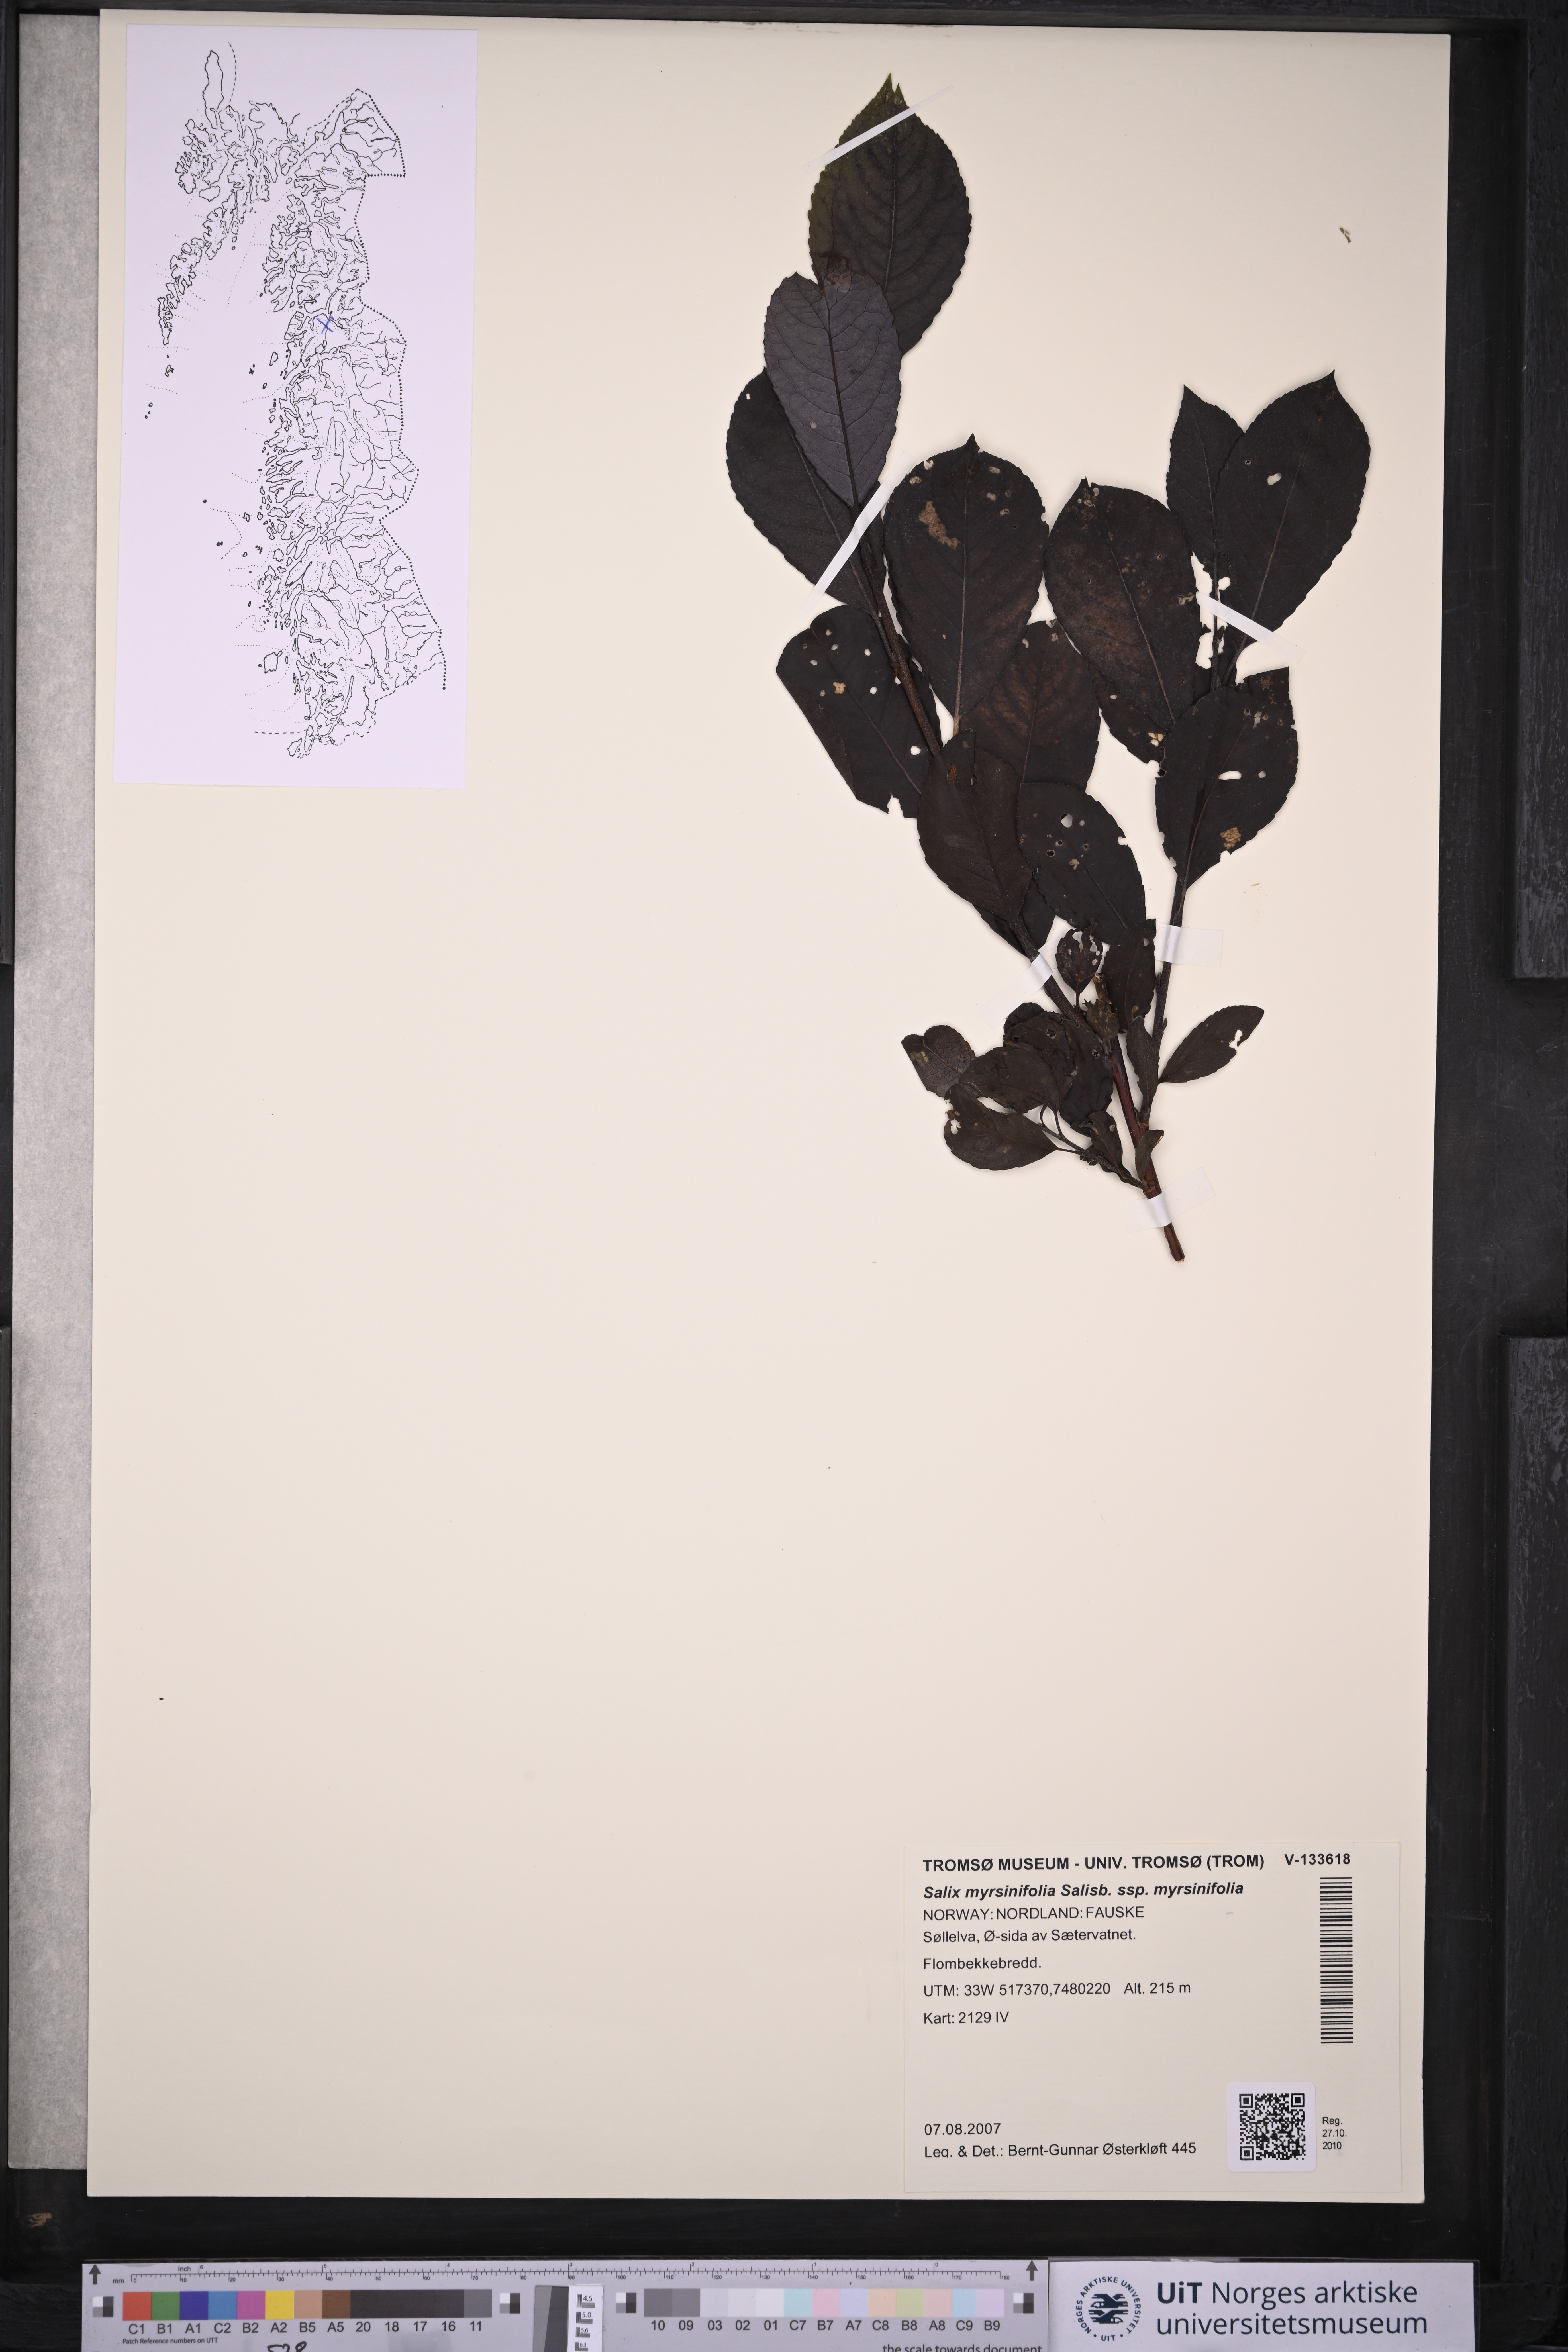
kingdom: Plantae
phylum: Tracheophyta
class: Magnoliopsida
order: Malpighiales
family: Salicaceae
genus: Salix
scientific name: Salix myrsinifolia
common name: Dark-leaved willow
